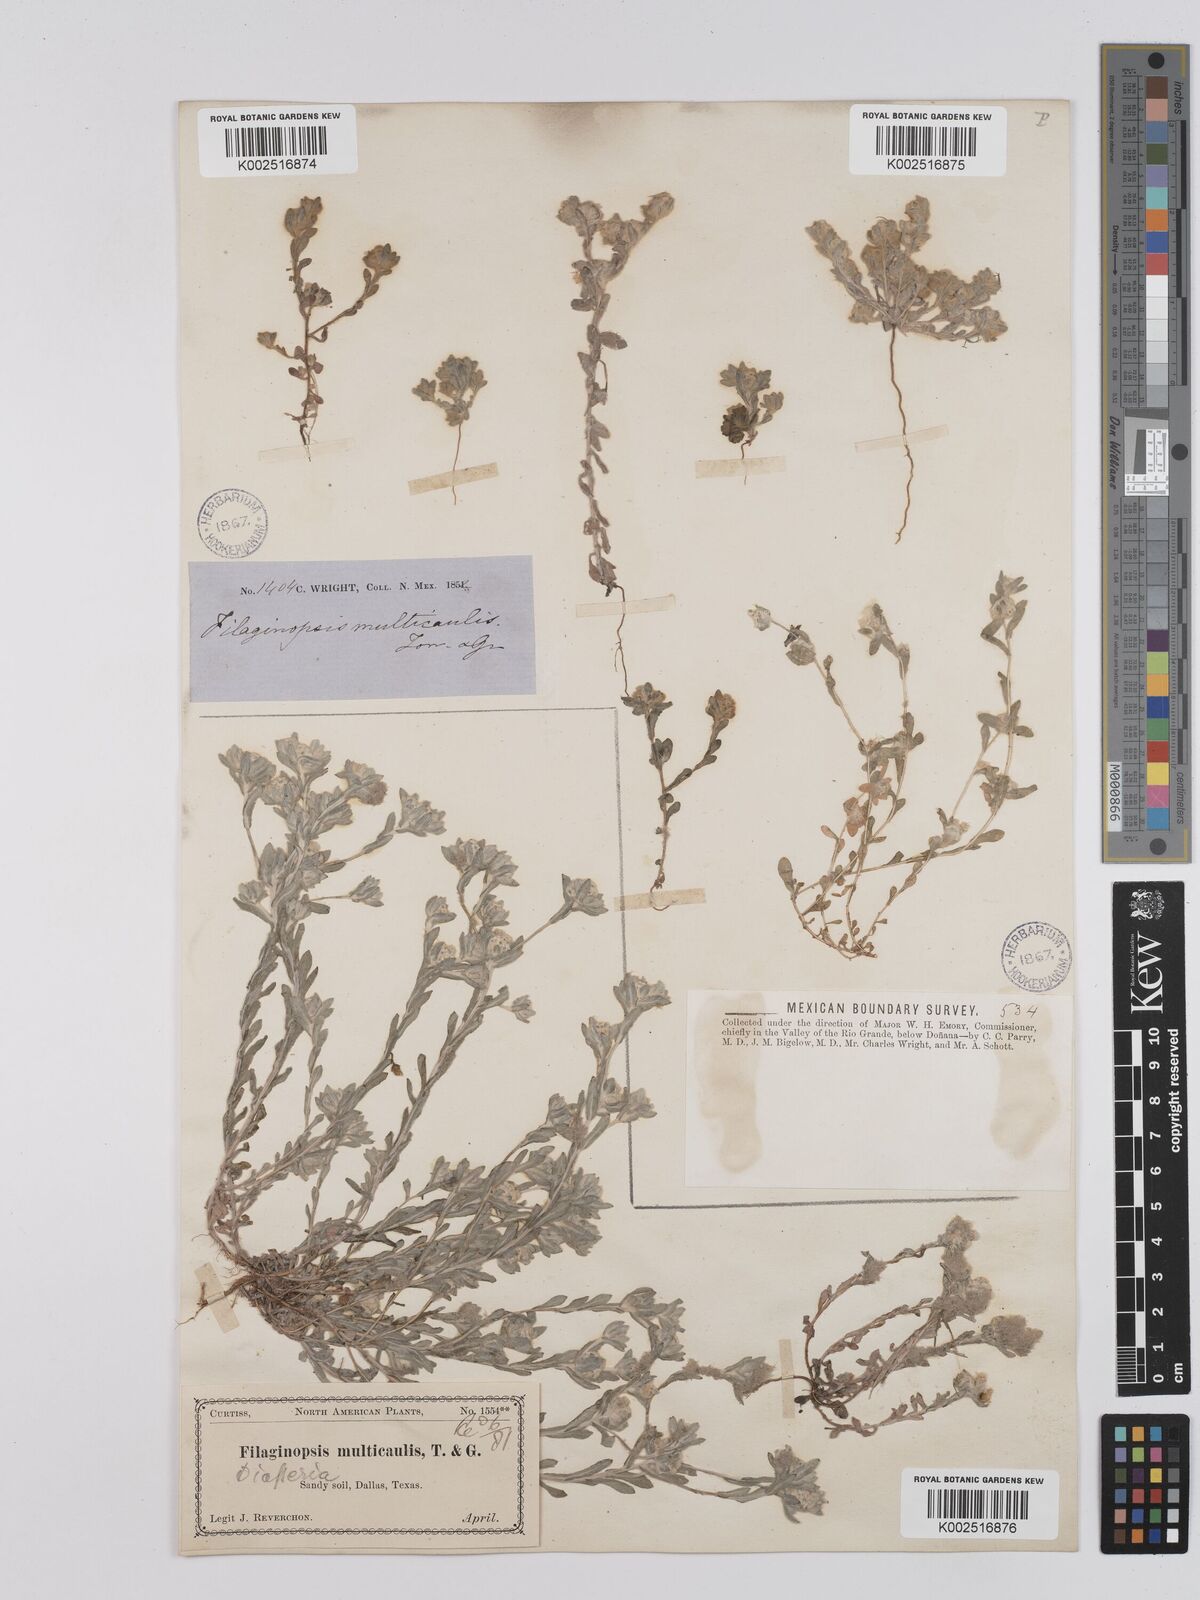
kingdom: Plantae
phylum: Tracheophyta
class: Magnoliopsida
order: Asterales
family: Asteraceae
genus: Filago
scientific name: Filago
